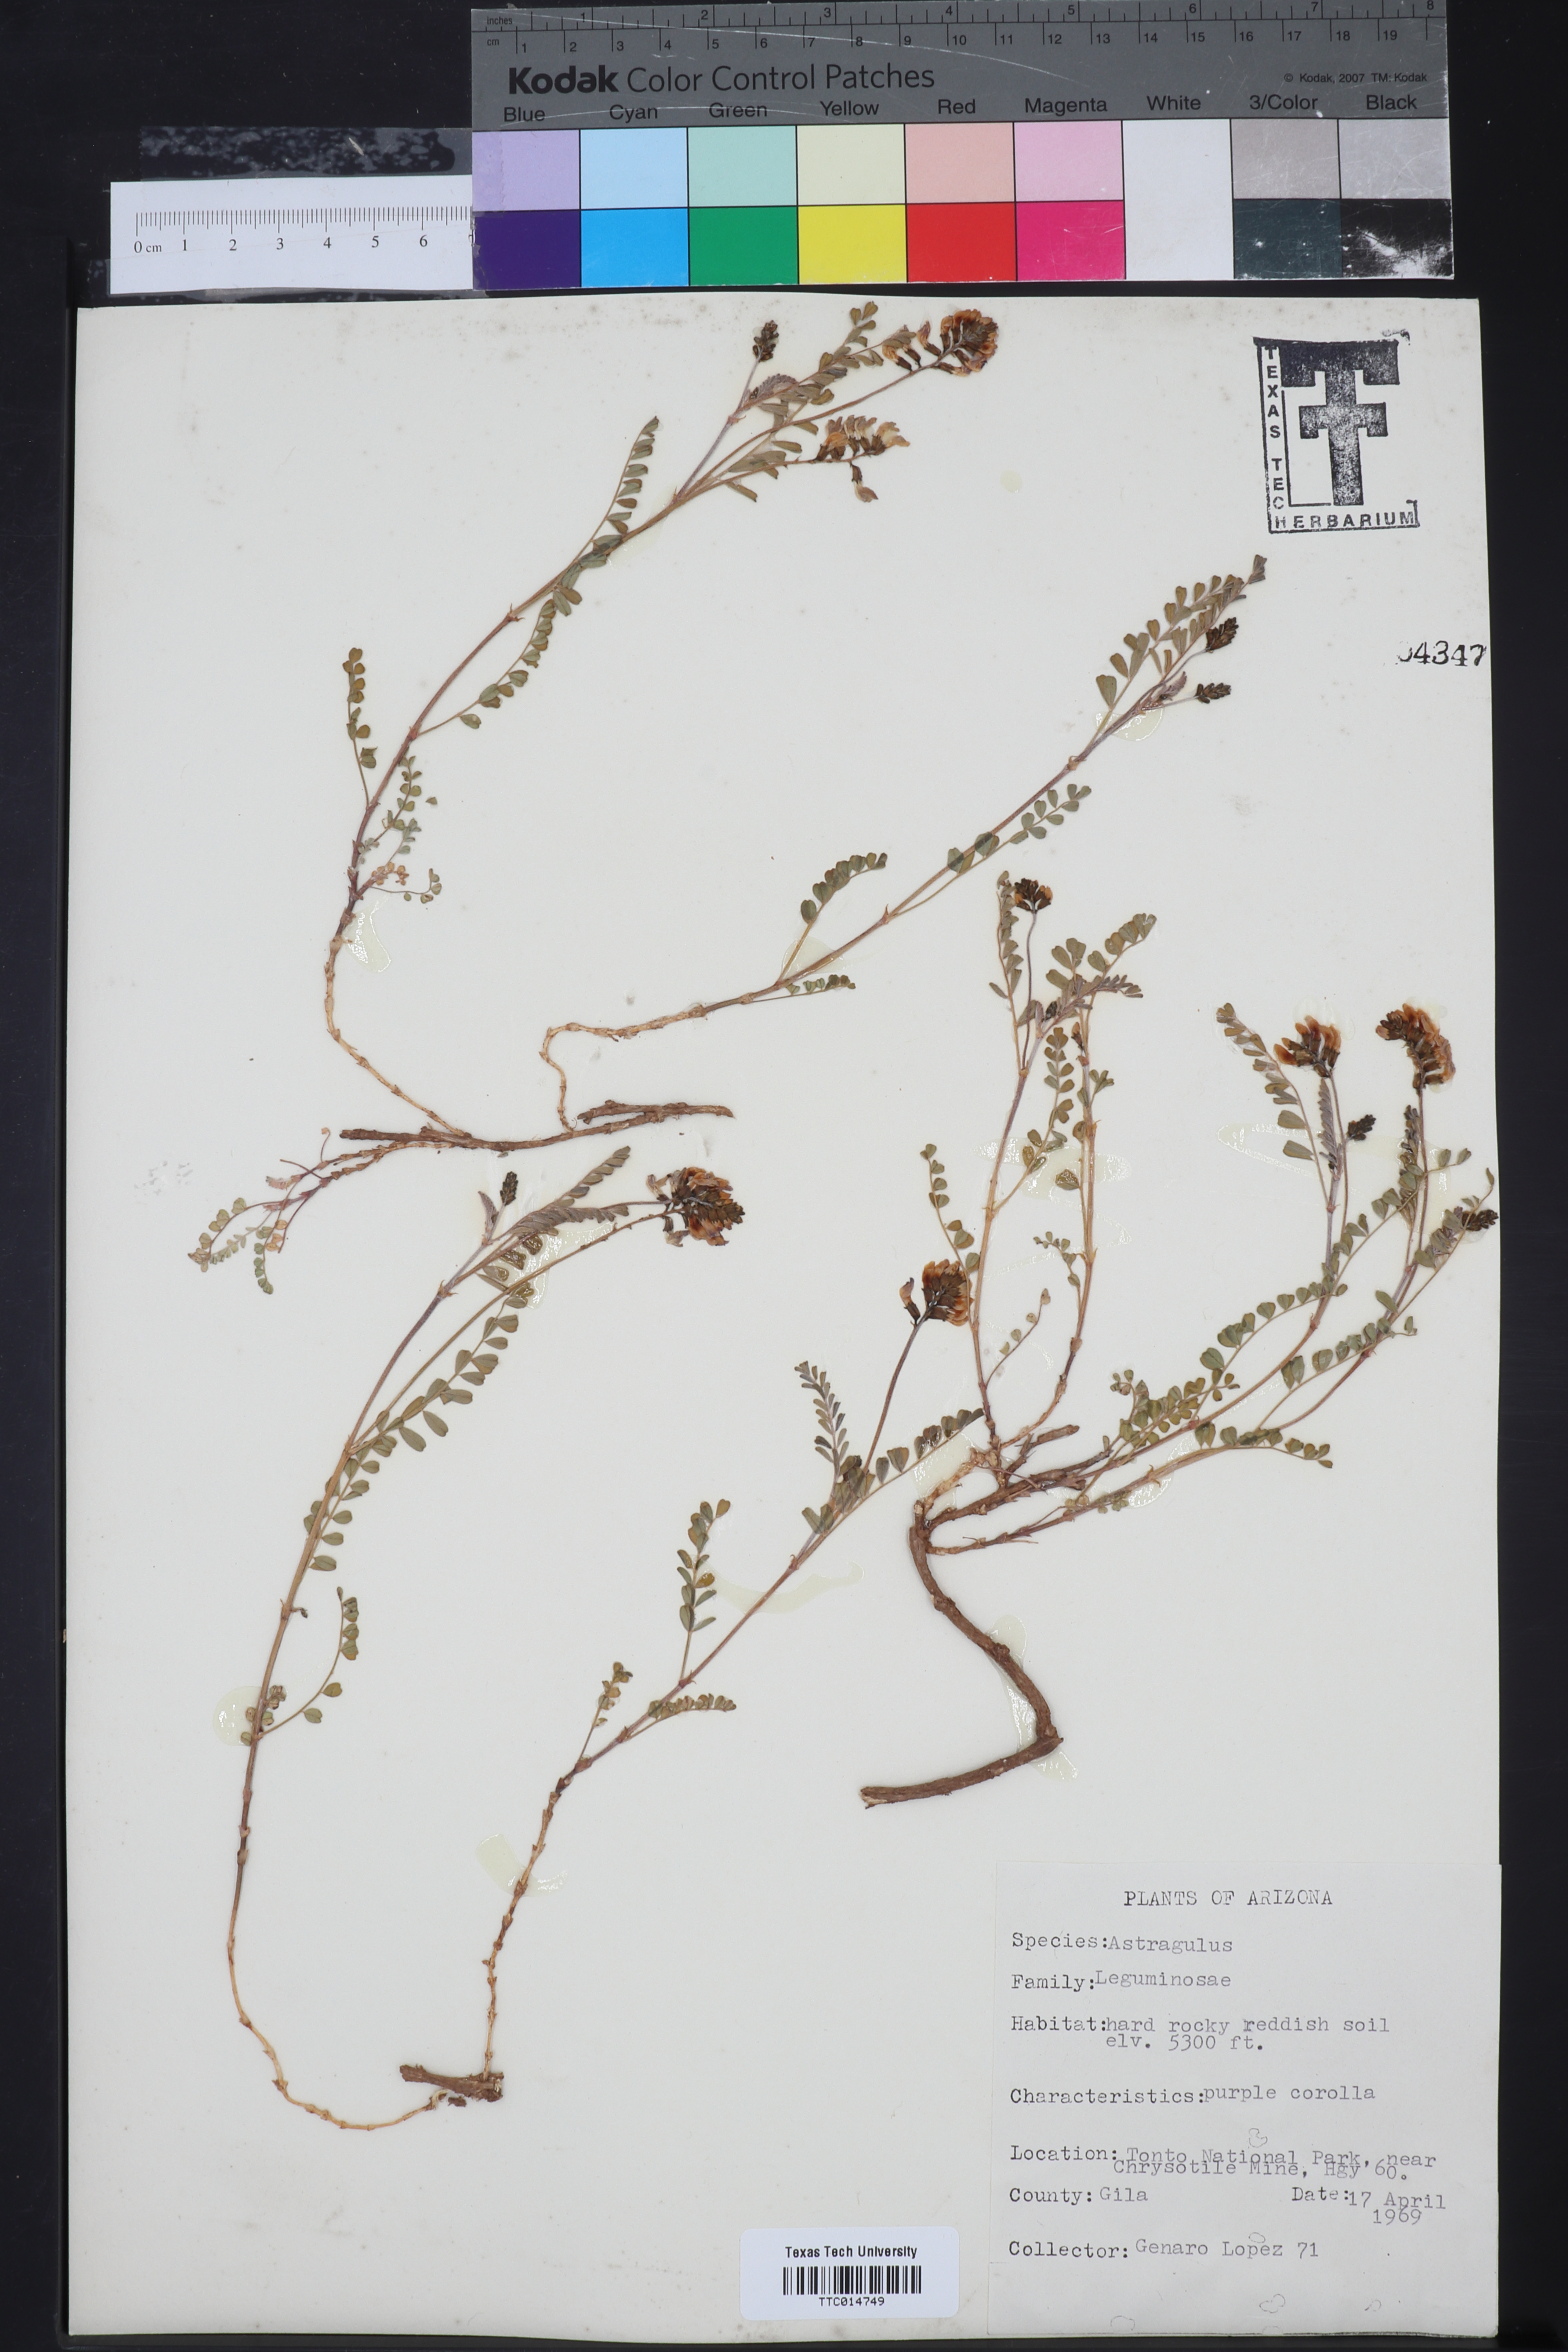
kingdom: Plantae
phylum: Tracheophyta
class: Magnoliopsida
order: Fabales
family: Fabaceae
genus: Astragalus
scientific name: Astragalus
